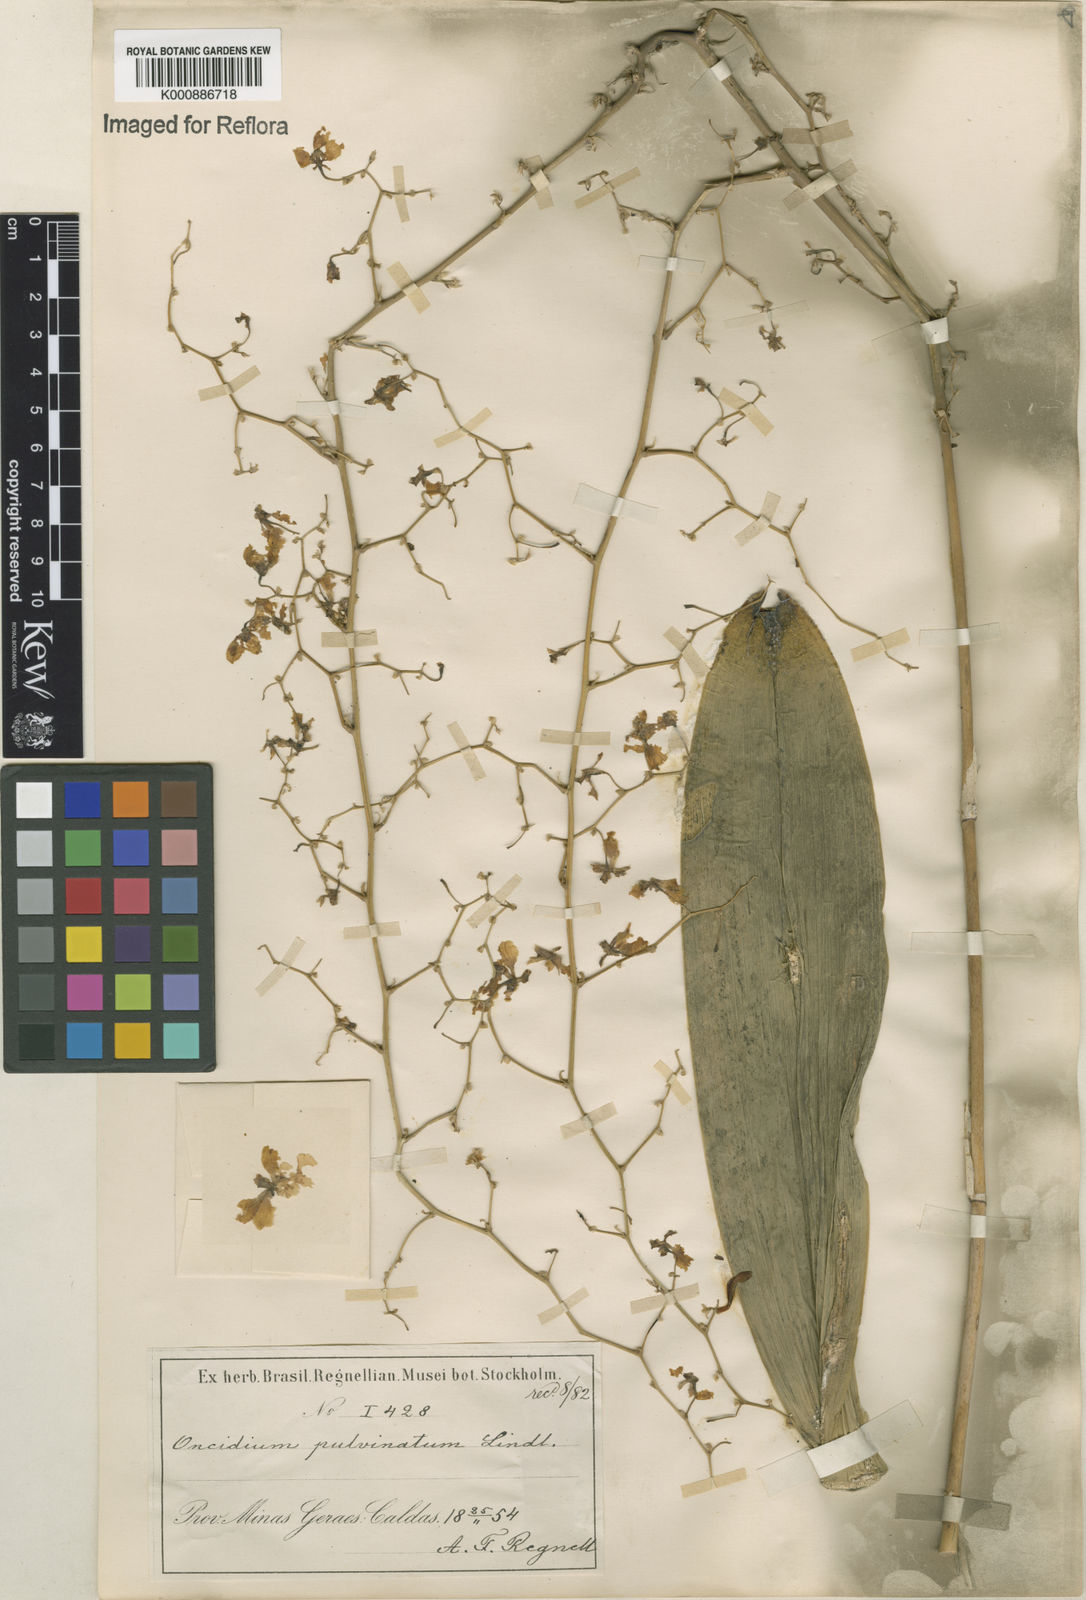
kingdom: Plantae
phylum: Tracheophyta
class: Liliopsida
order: Asparagales
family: Orchidaceae
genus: Grandiphyllum
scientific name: Grandiphyllum divaricatum
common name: Mule-ear orchid
